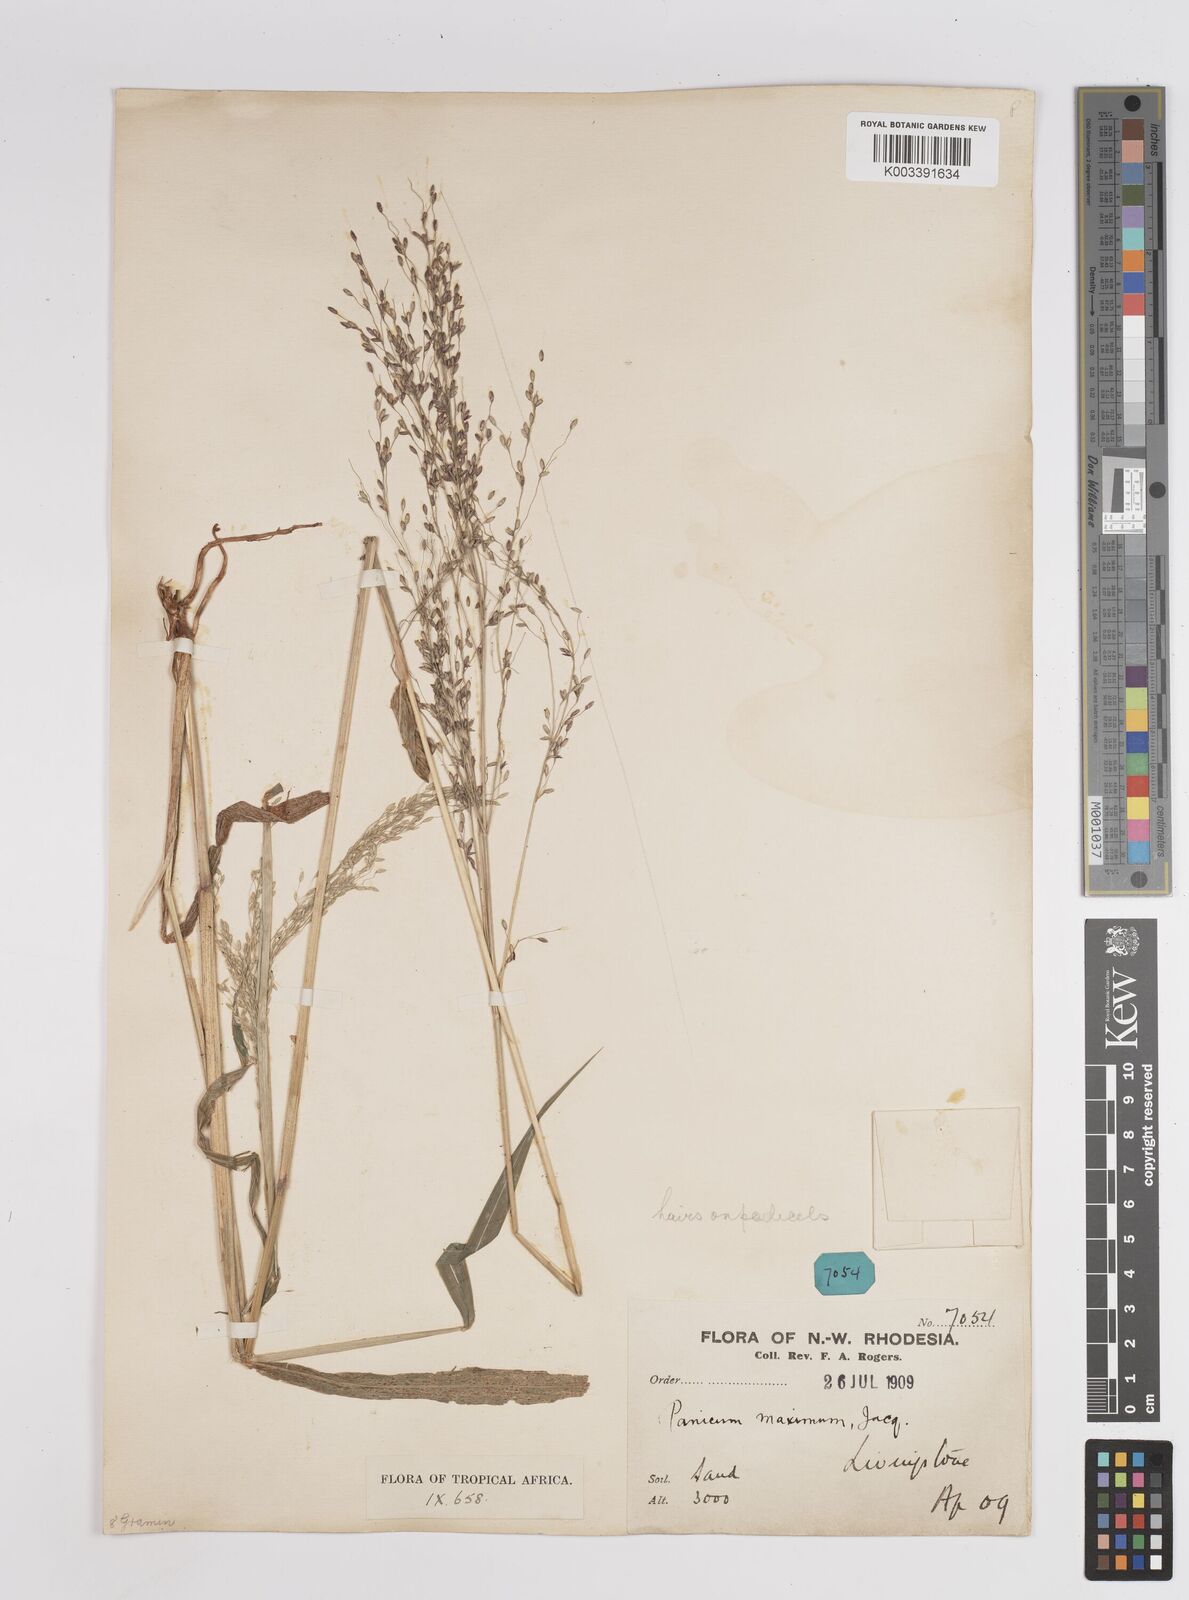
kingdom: Plantae
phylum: Tracheophyta
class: Liliopsida
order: Poales
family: Poaceae
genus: Megathyrsus
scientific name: Megathyrsus maximus
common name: Guineagrass
